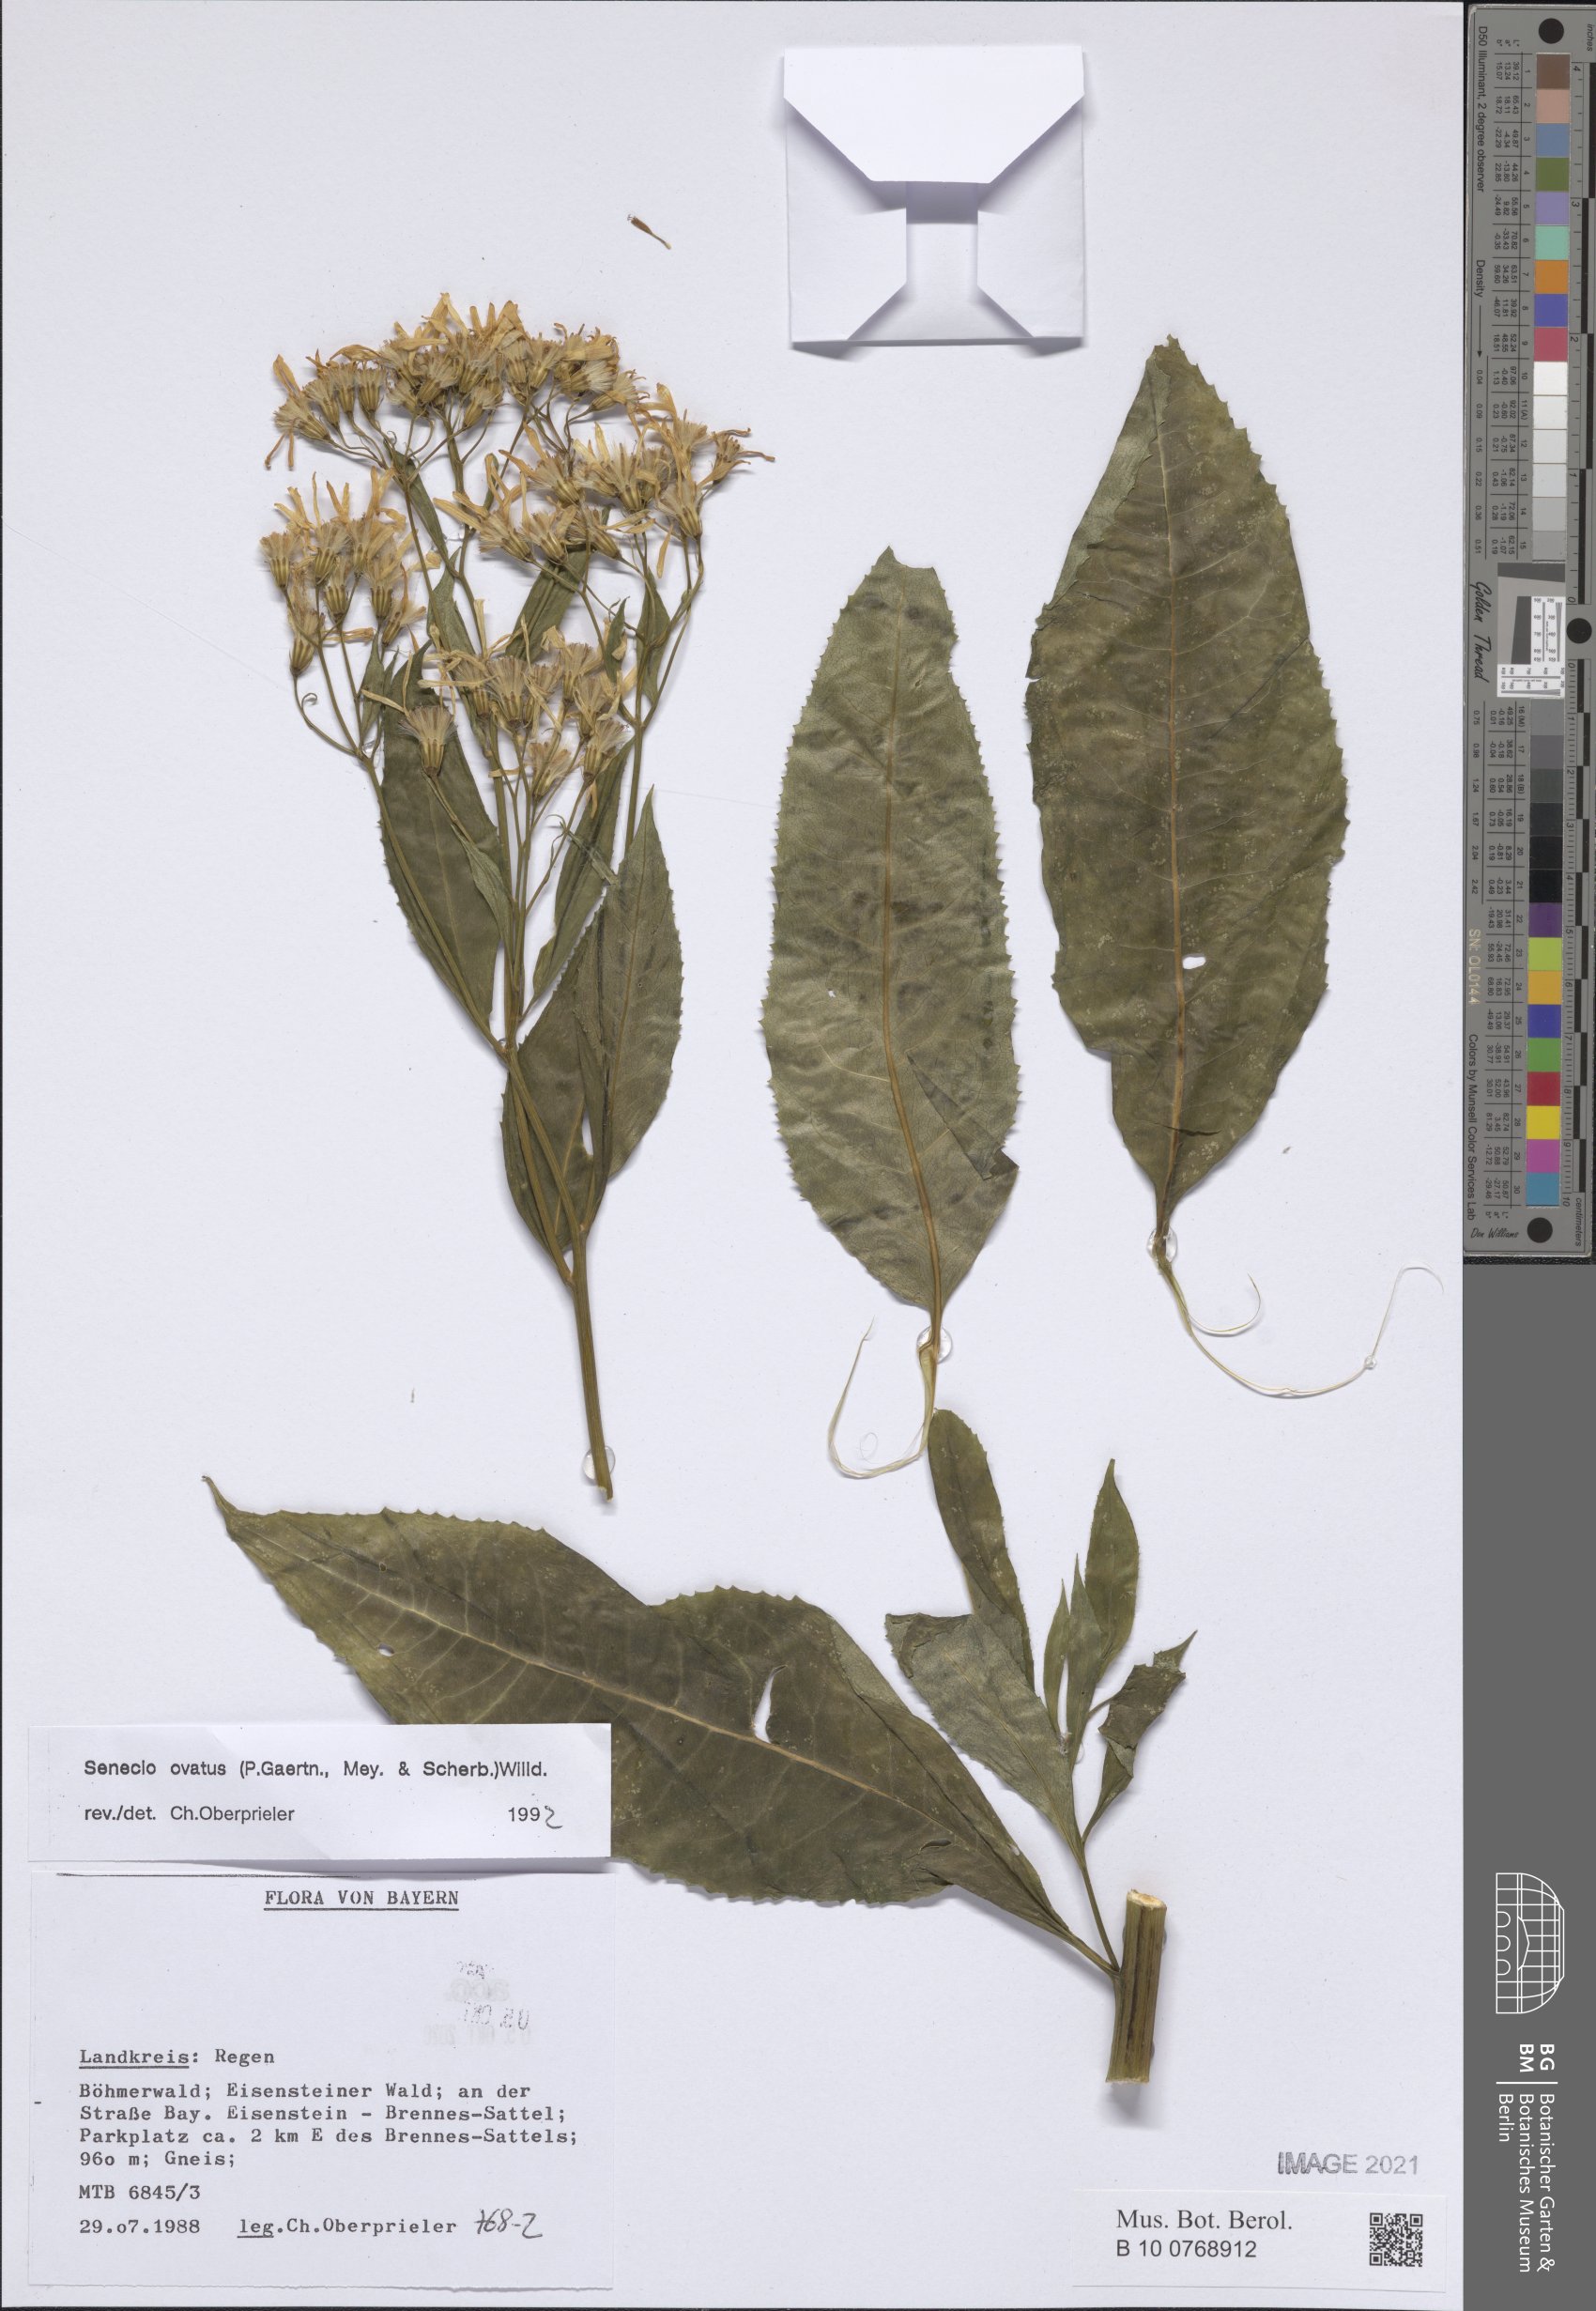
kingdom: Plantae
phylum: Tracheophyta
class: Magnoliopsida
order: Asterales
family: Asteraceae
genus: Senecio
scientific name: Senecio ovatus
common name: Wood ragwort
